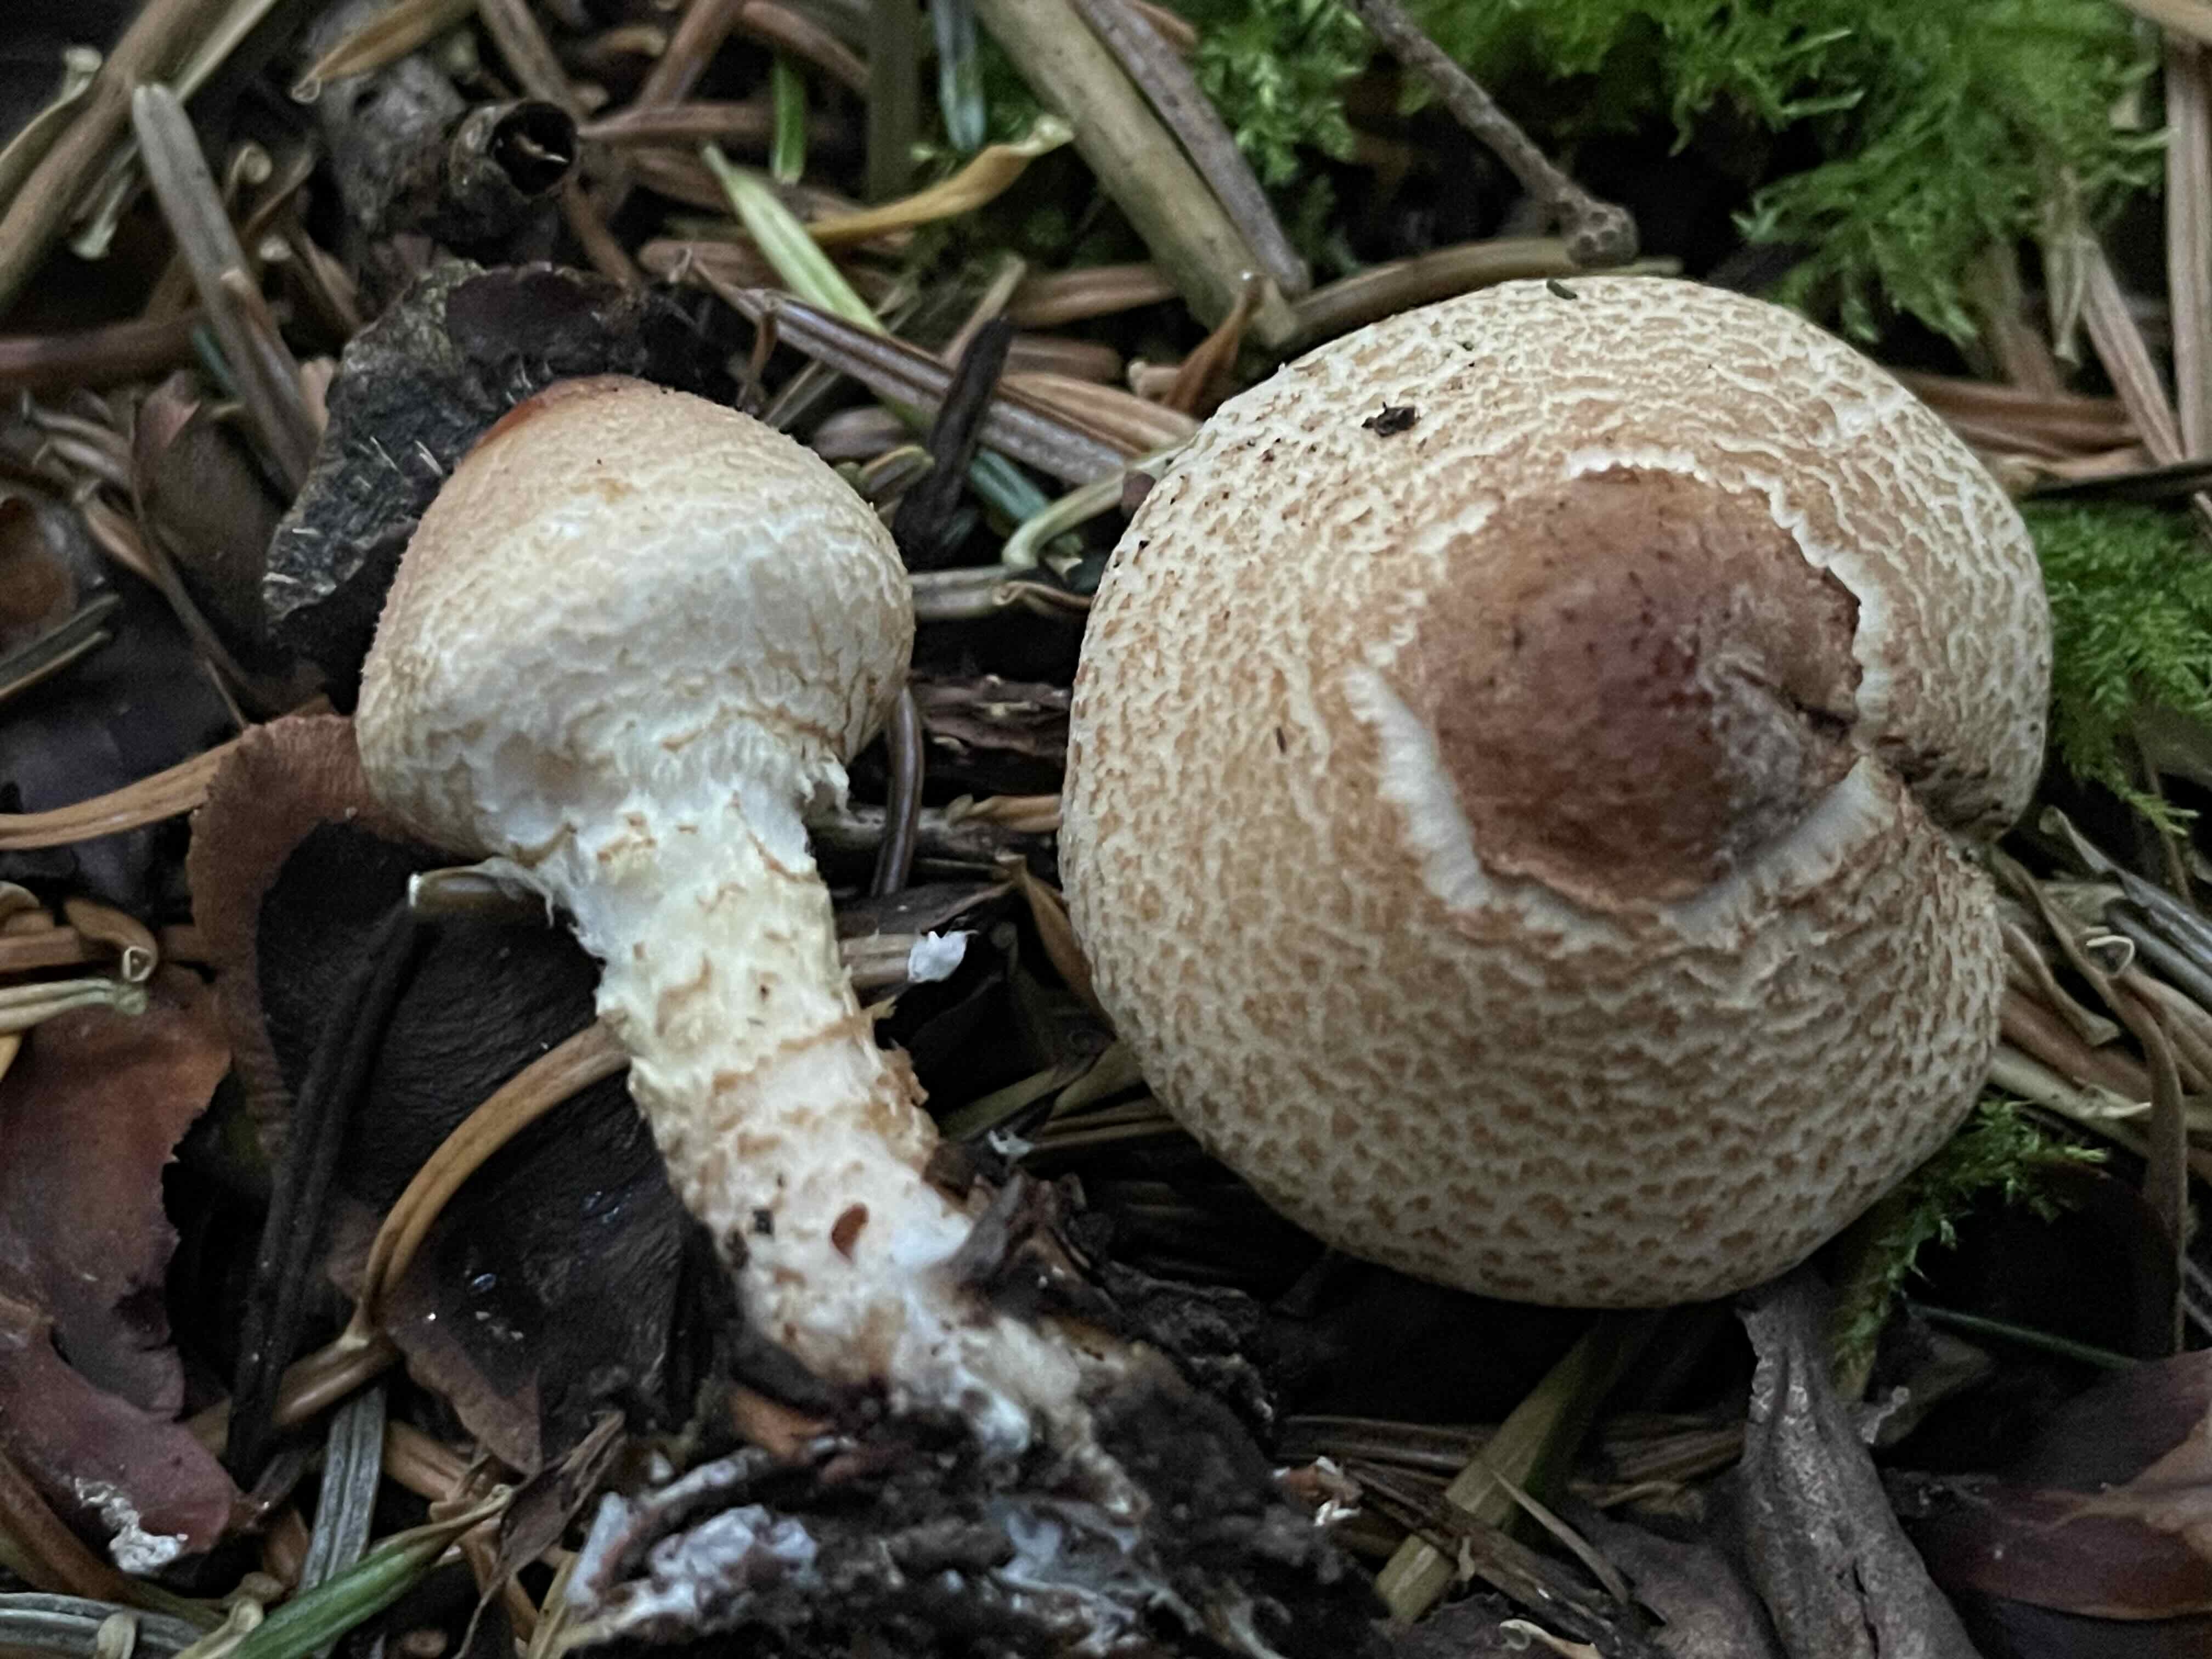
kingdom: Fungi
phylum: Basidiomycota
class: Agaricomycetes
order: Agaricales
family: Agaricaceae
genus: Lepiota
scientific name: Lepiota magnispora
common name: gulfnugget parasolhat
